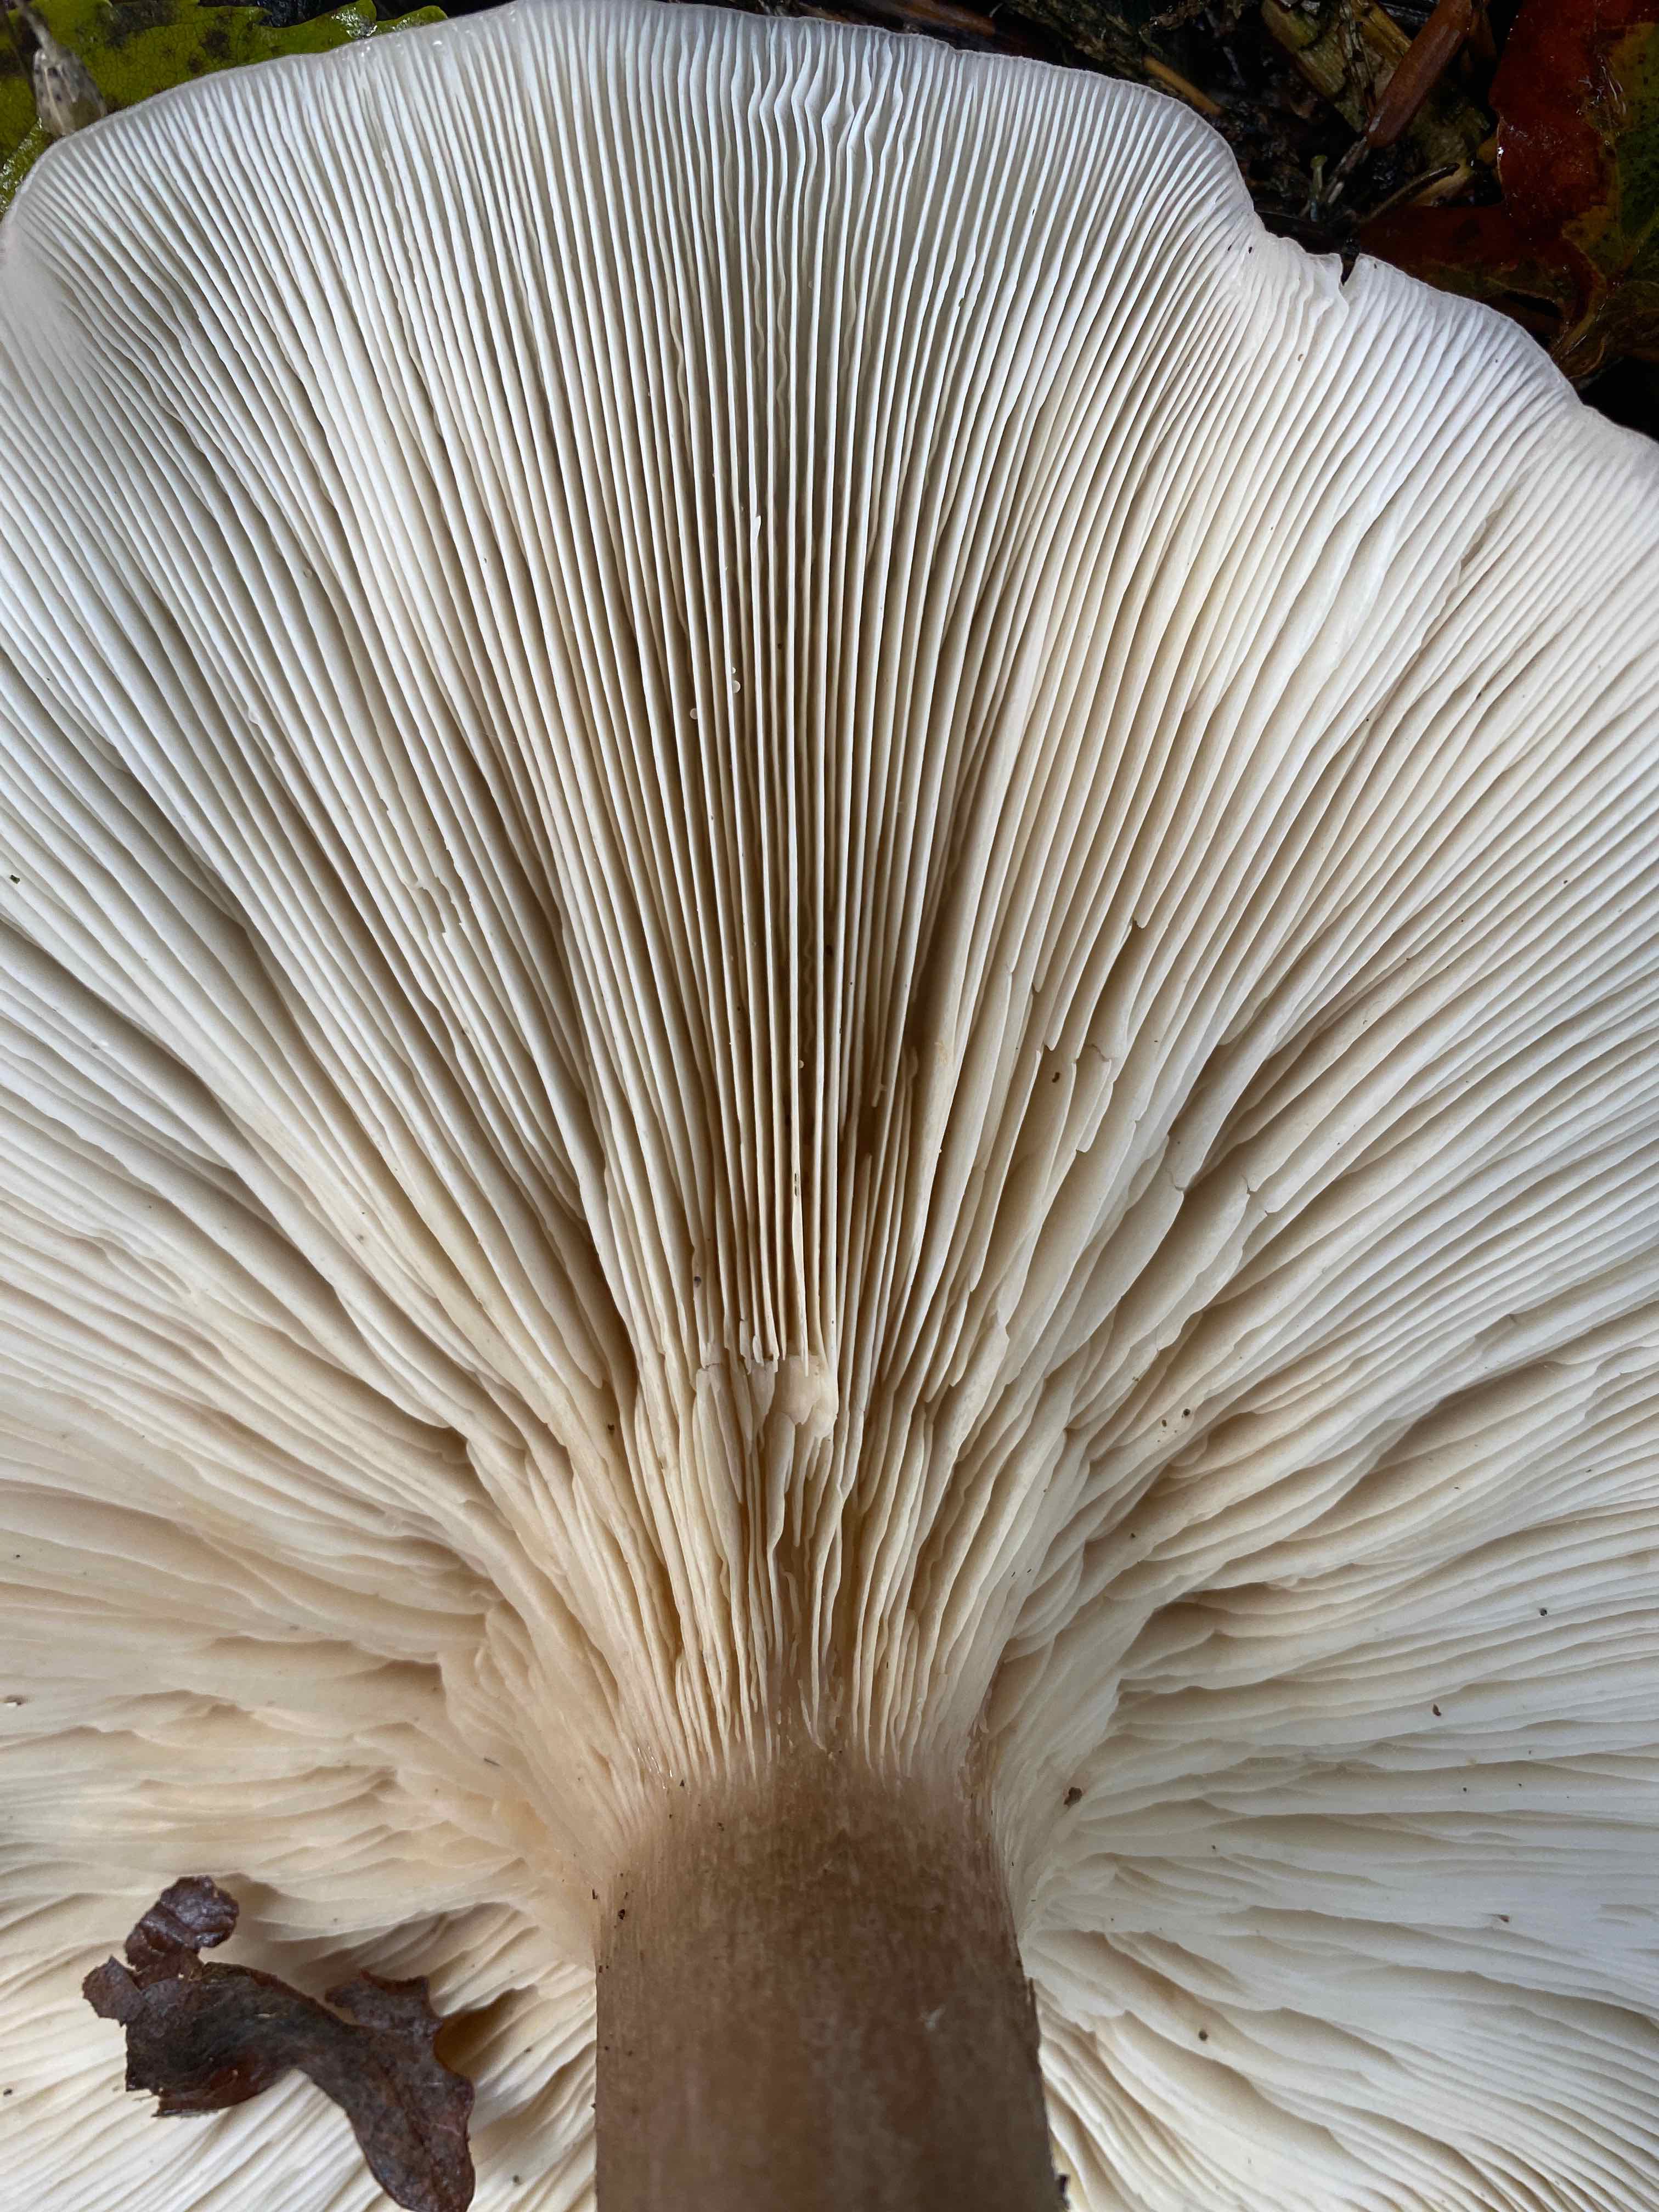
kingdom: Fungi
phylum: Basidiomycota
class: Agaricomycetes
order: Agaricales
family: Tricholomataceae
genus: Clitocybe
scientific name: Clitocybe nebularis
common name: tåge-tragthat
